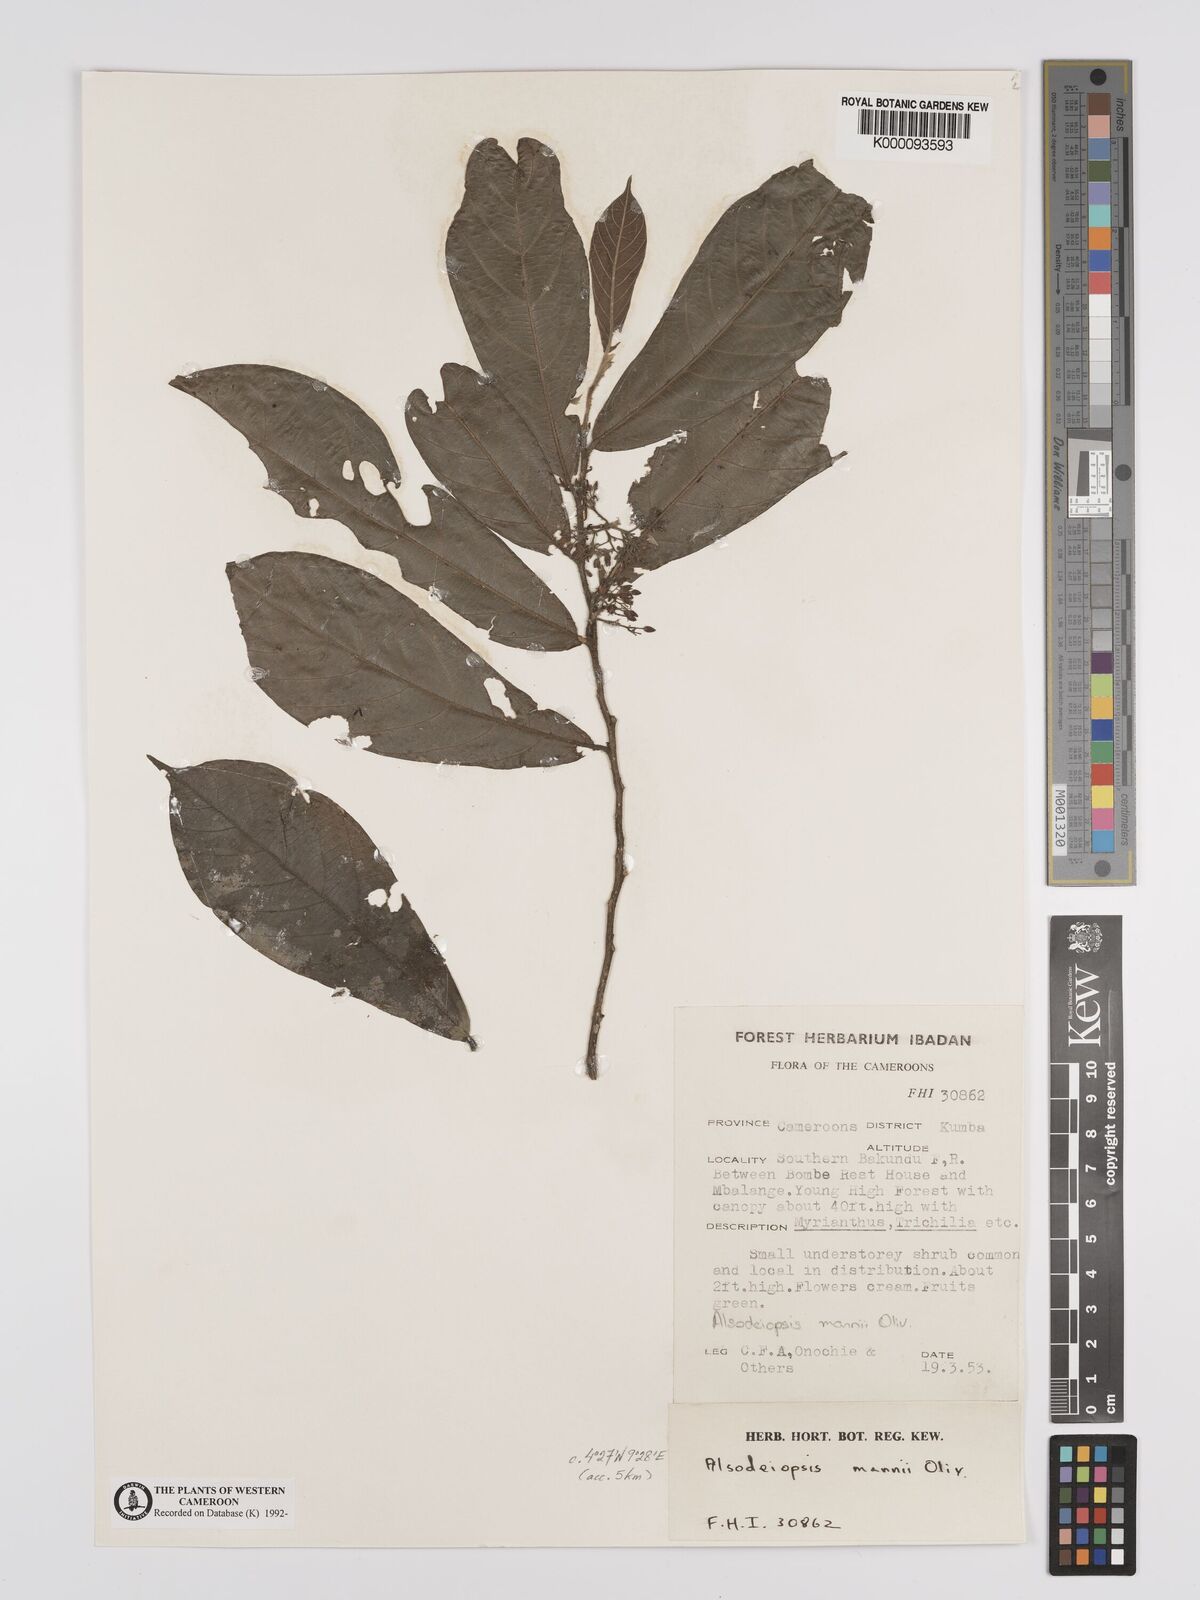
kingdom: Plantae
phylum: Tracheophyta
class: Magnoliopsida
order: Icacinales
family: Icacinaceae
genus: Alsodeiopsis
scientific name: Alsodeiopsis poggei
